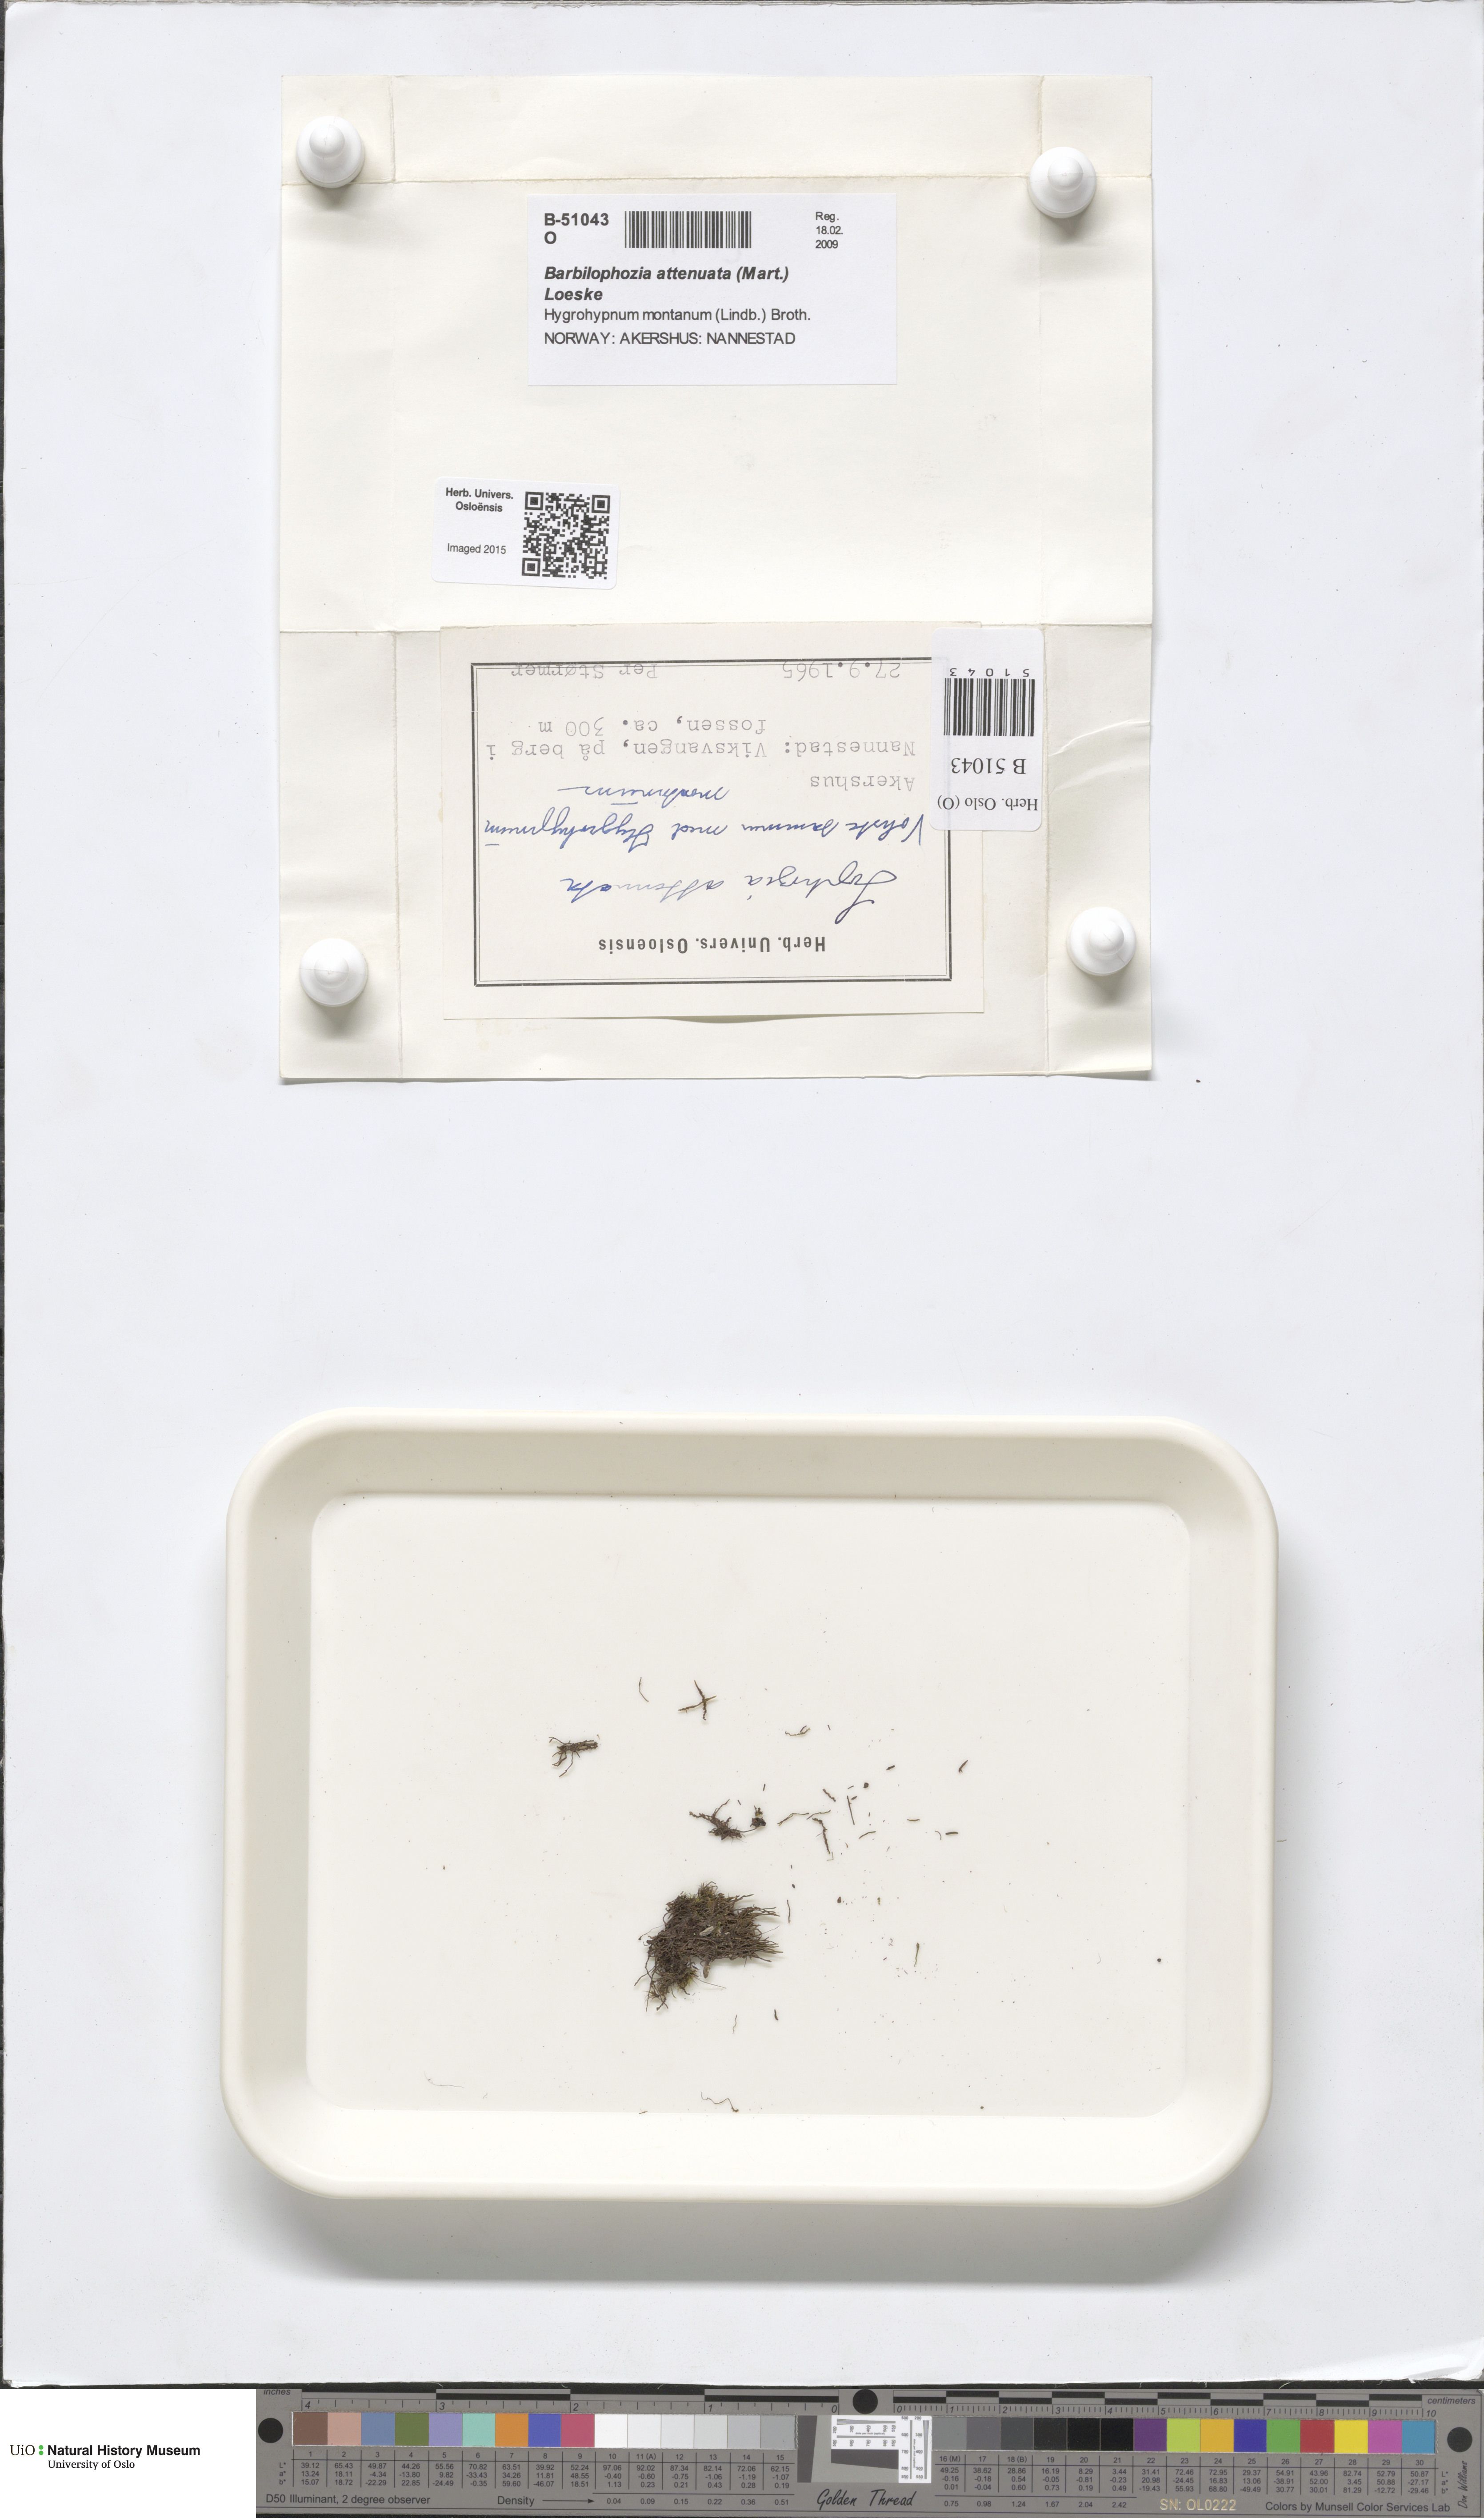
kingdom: Plantae
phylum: Marchantiophyta
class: Jungermanniopsida
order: Jungermanniales
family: Anastrophyllaceae
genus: Neoorthocaulis
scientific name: Neoorthocaulis attenuatus
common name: Trunk pawwort
